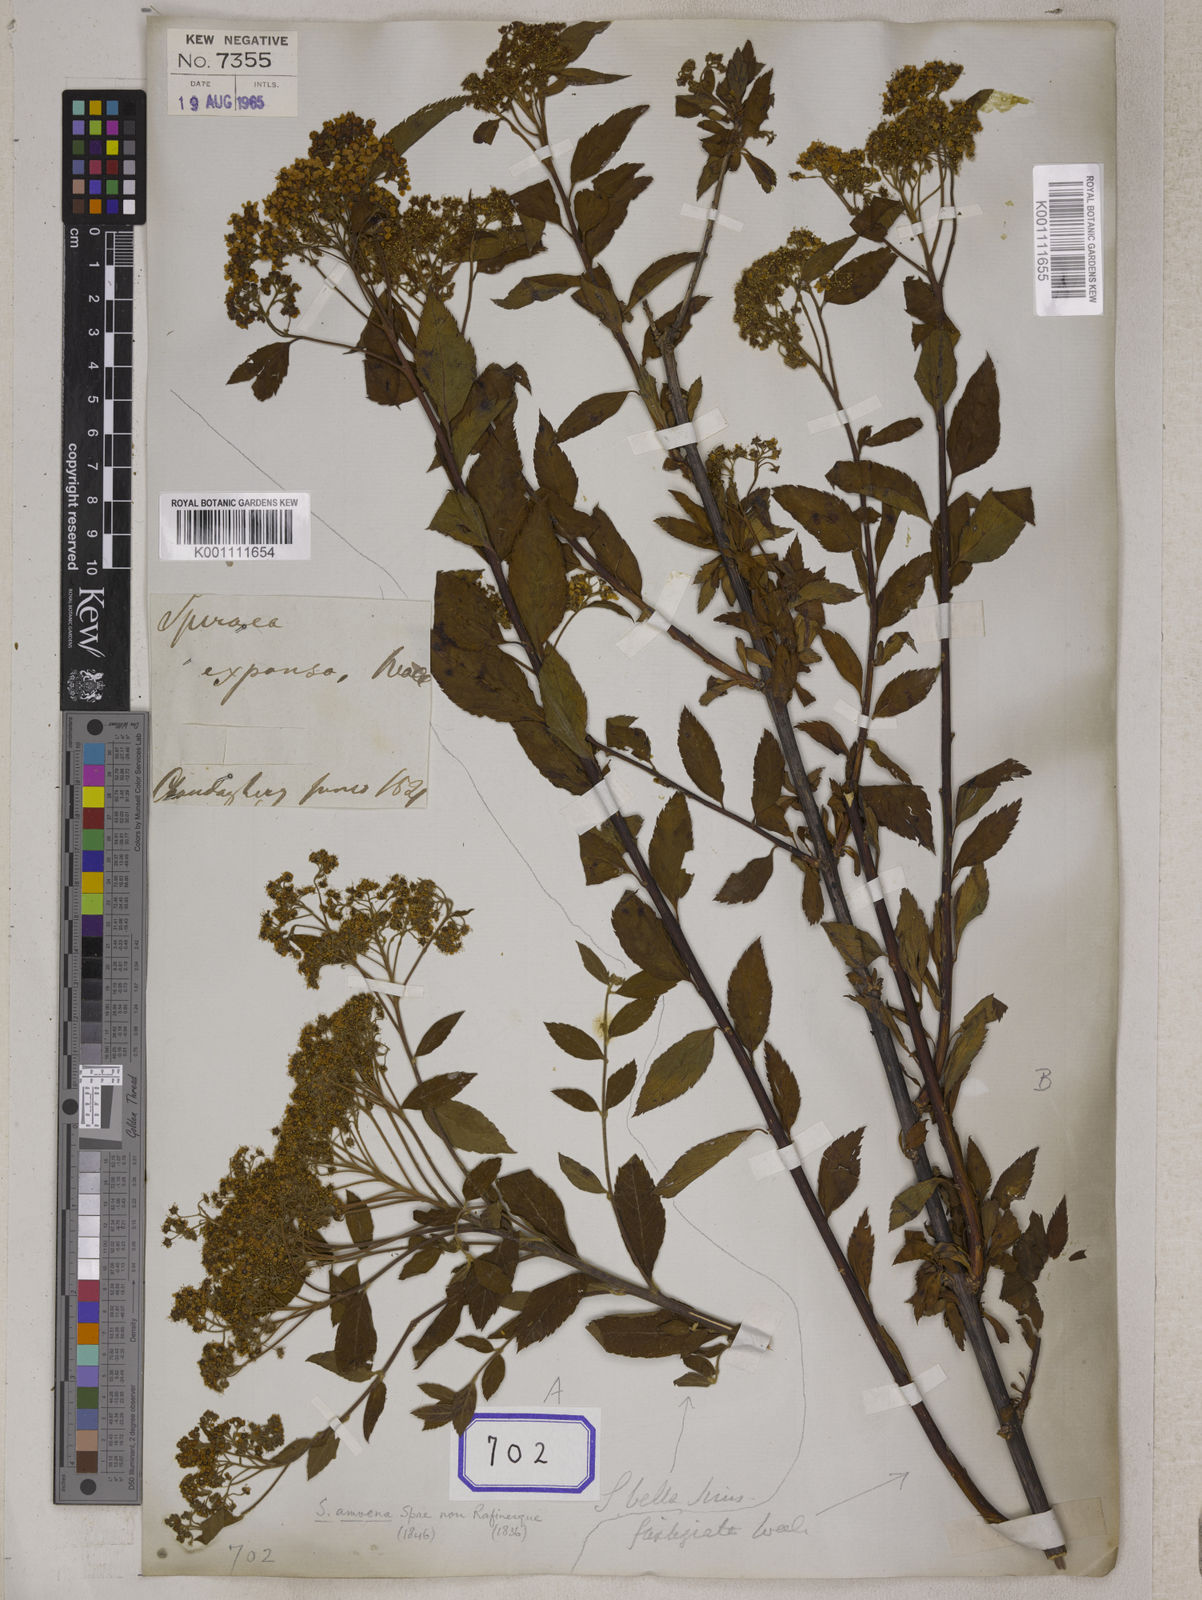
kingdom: Plantae
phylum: Tracheophyta
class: Magnoliopsida
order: Rosales
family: Rosaceae
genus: Spiraea
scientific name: Spiraea expansa
